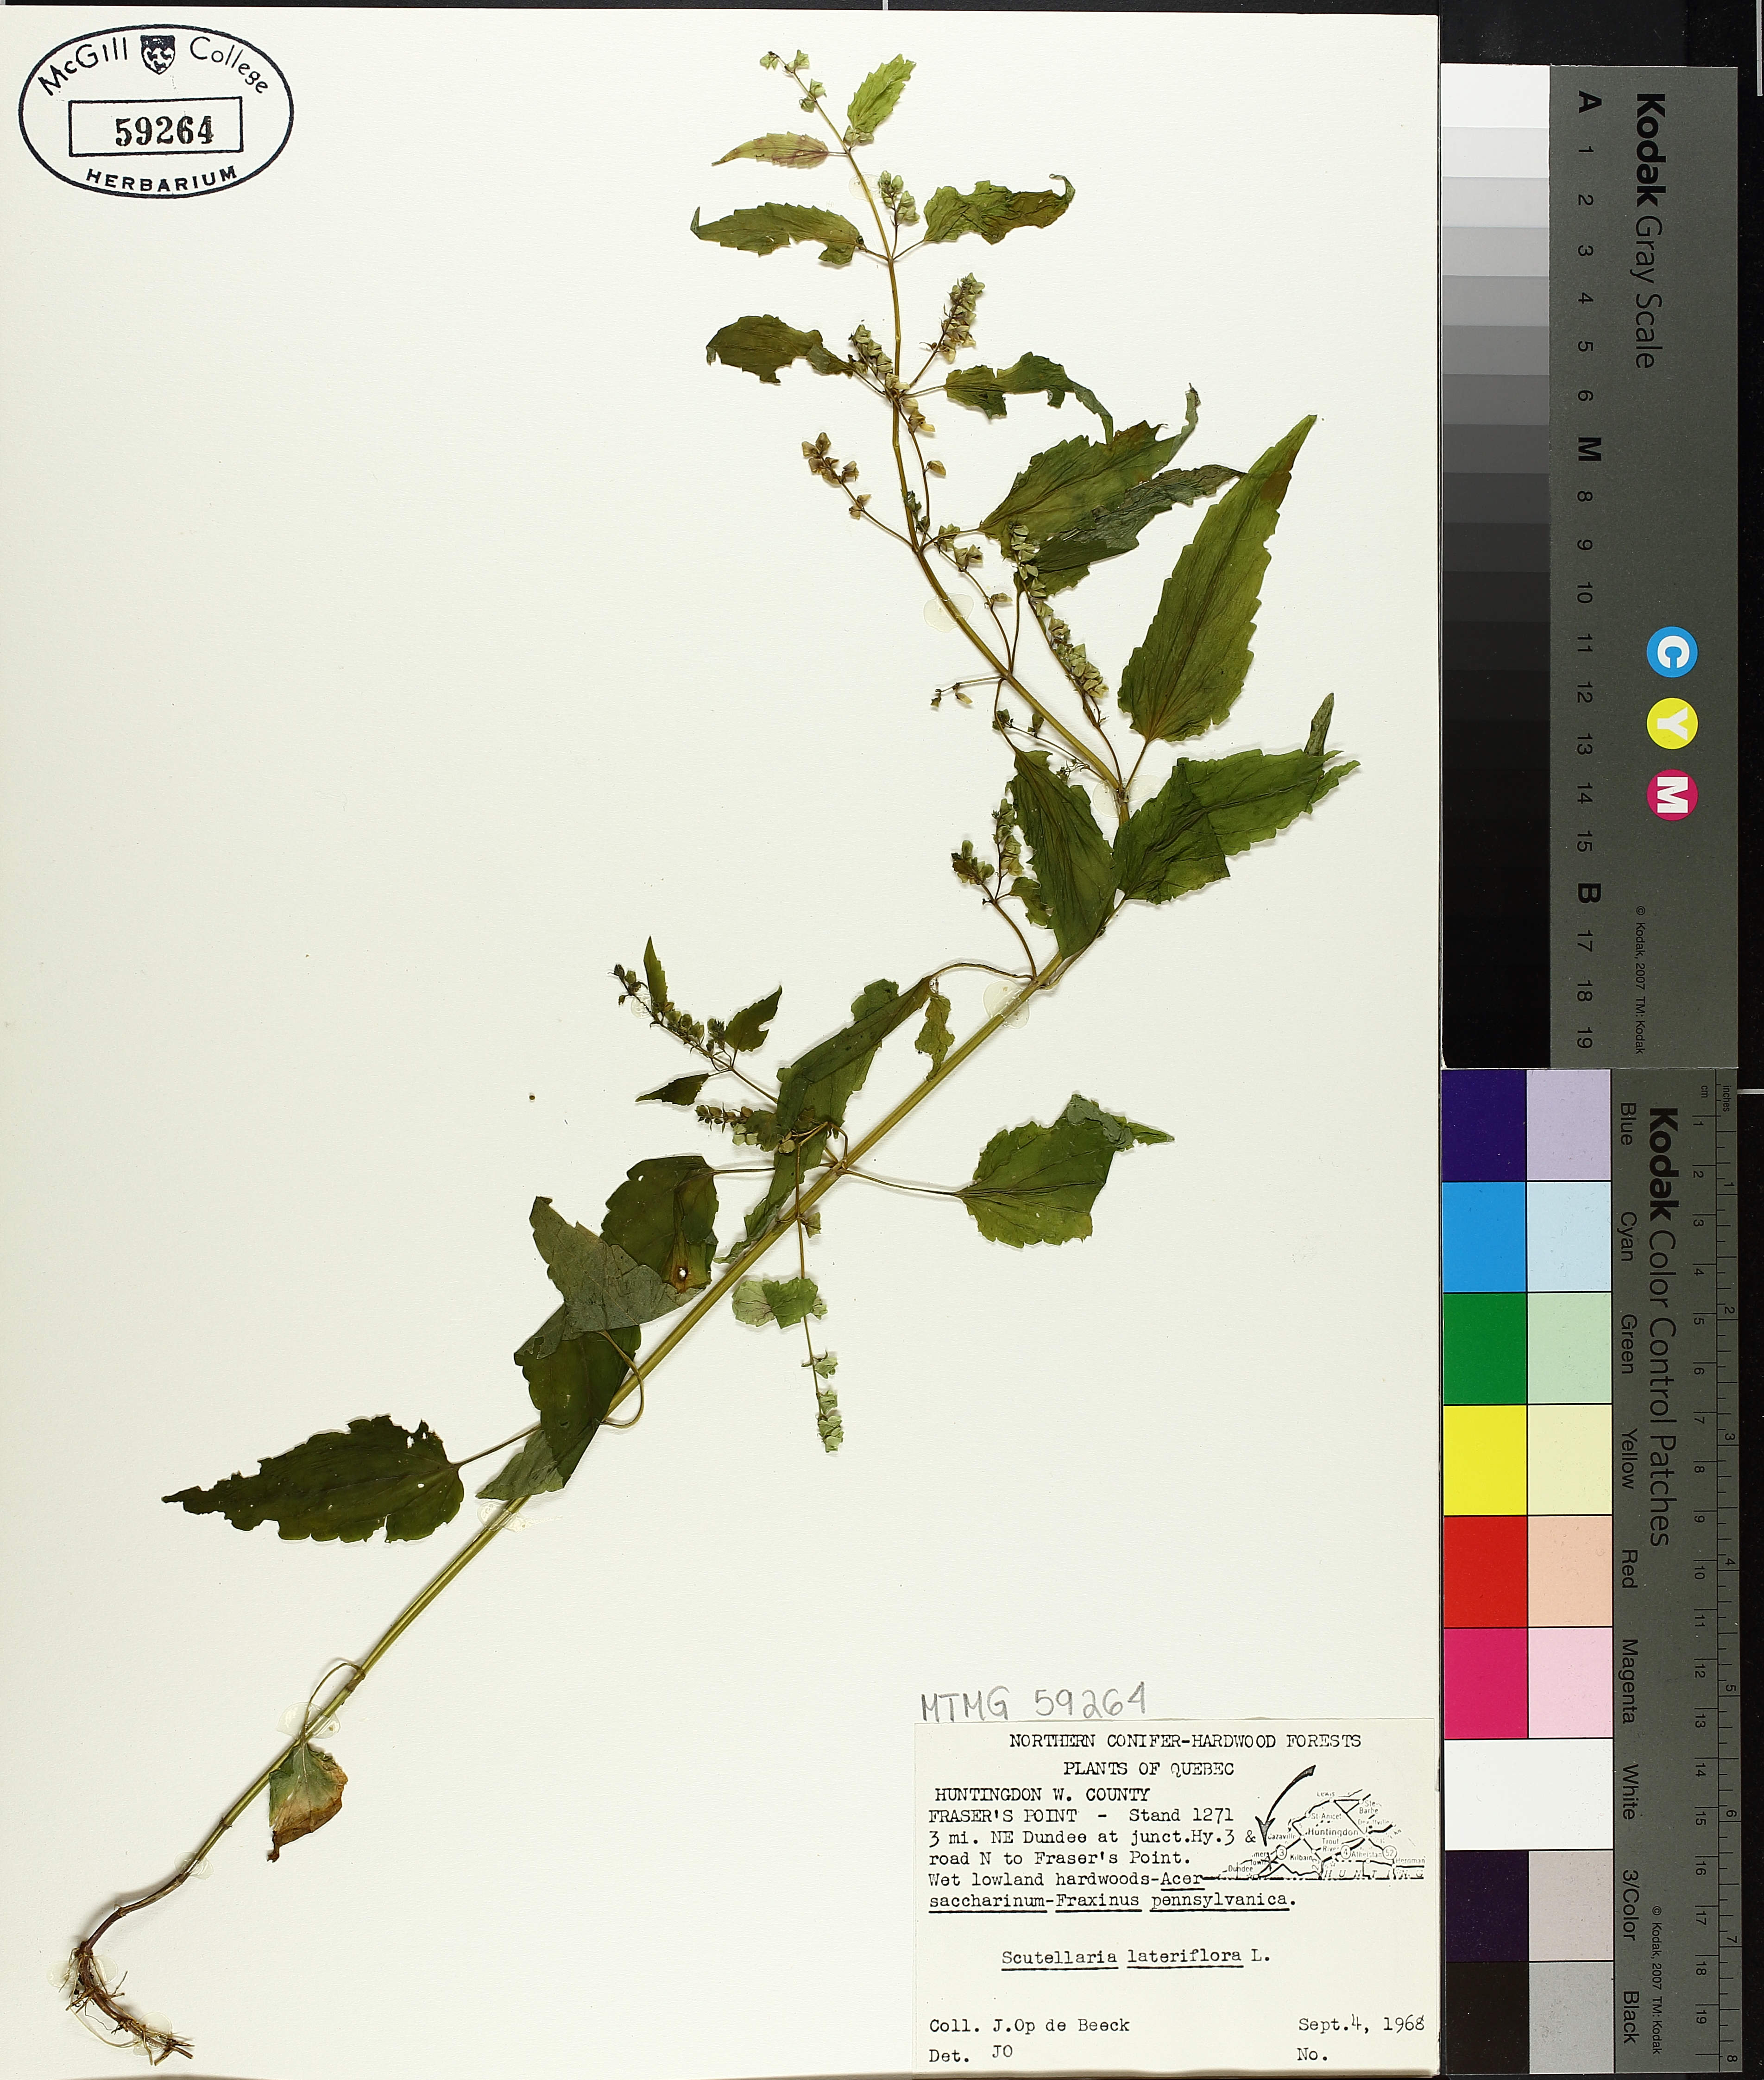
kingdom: Plantae
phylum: Tracheophyta
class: Magnoliopsida
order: Lamiales
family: Lamiaceae
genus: Scutellaria
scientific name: Scutellaria lateriflora
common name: Blue skullcap
